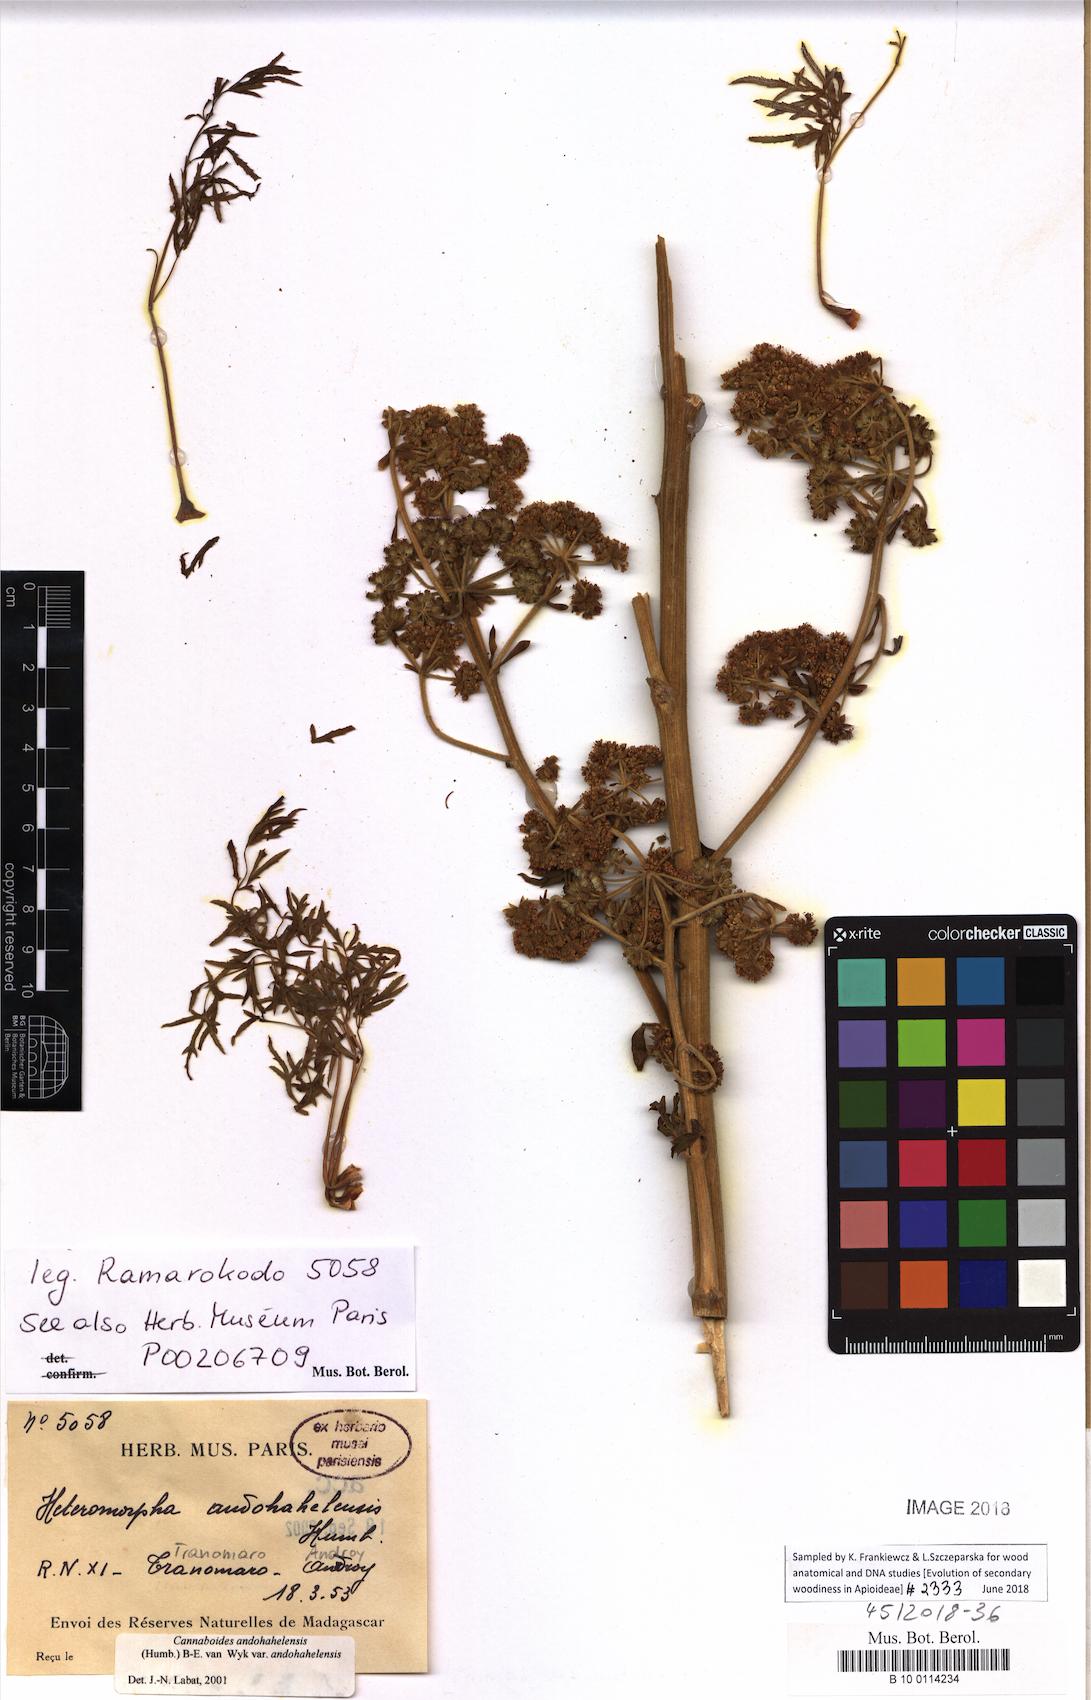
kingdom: Plantae
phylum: Tracheophyta
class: Magnoliopsida
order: Apiales
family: Apiaceae
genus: Cannaboides
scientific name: Cannaboides andohahelensis
